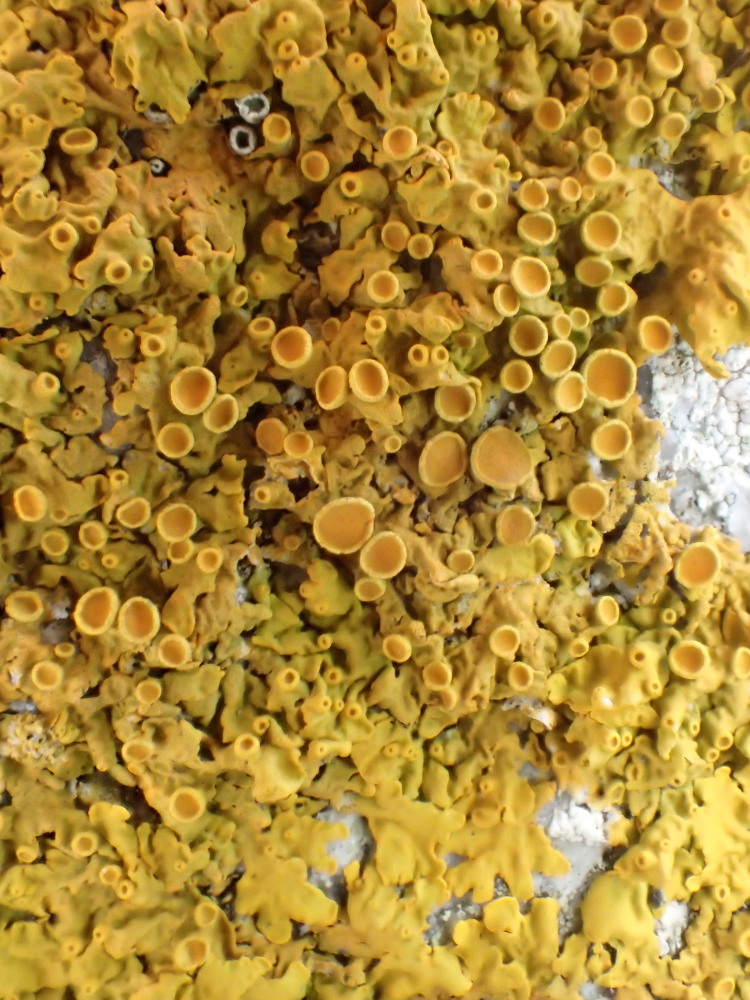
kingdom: Fungi
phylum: Ascomycota
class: Lecanoromycetes
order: Teloschistales
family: Teloschistaceae
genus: Xanthoria
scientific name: Xanthoria parietina
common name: almindelig væggelav
